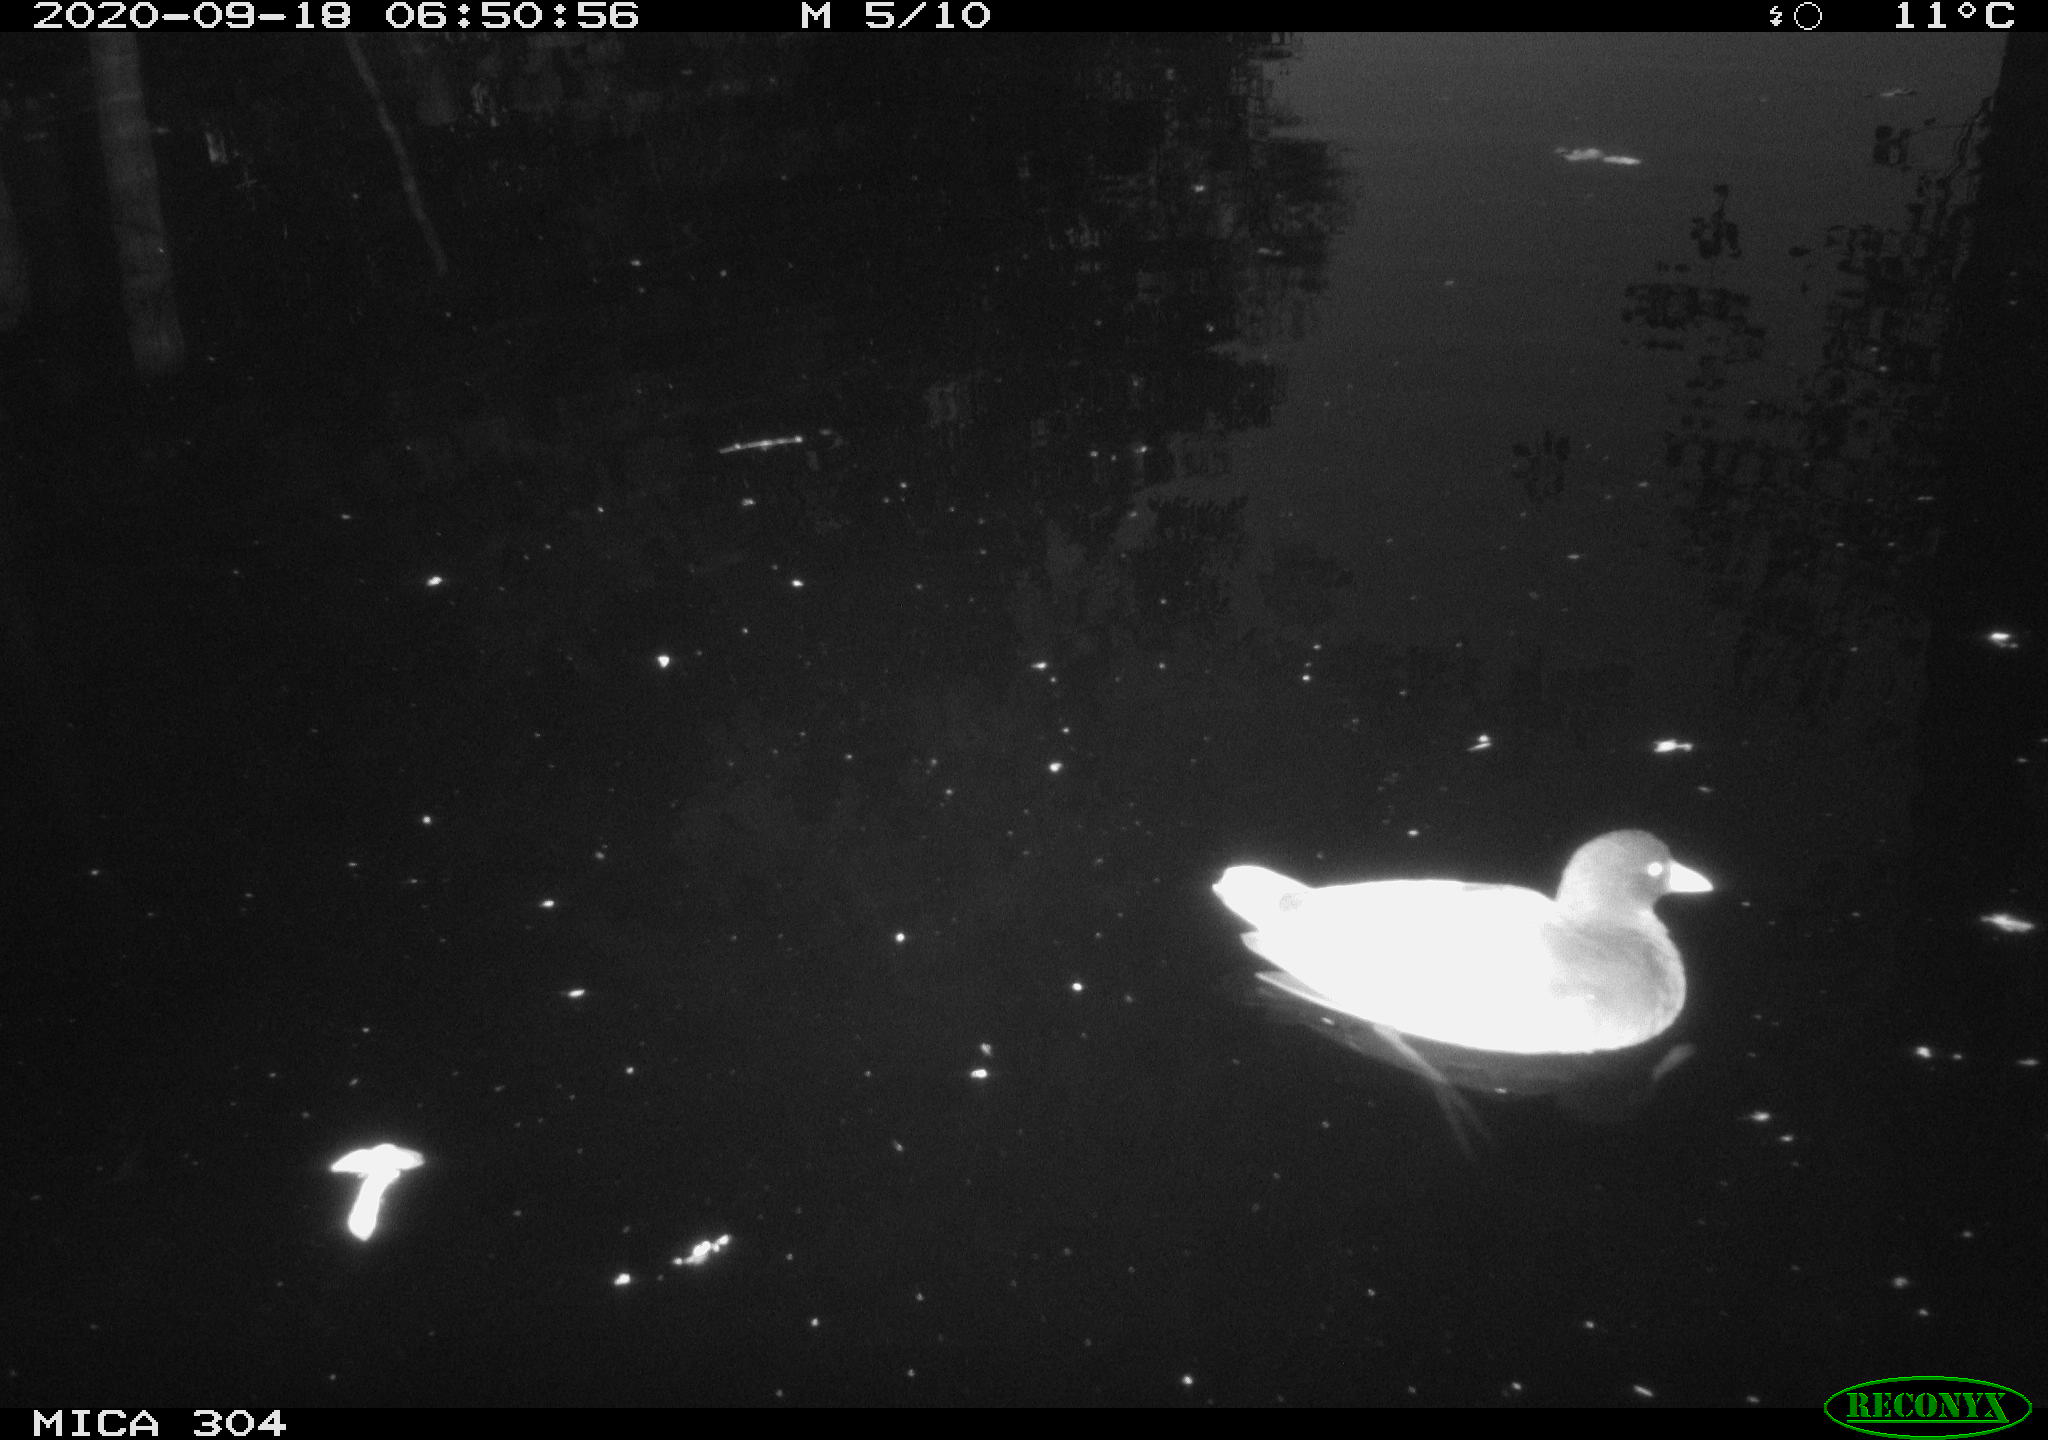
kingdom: Animalia
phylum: Chordata
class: Aves
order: Gruiformes
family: Rallidae
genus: Gallinula
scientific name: Gallinula chloropus
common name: Common moorhen
